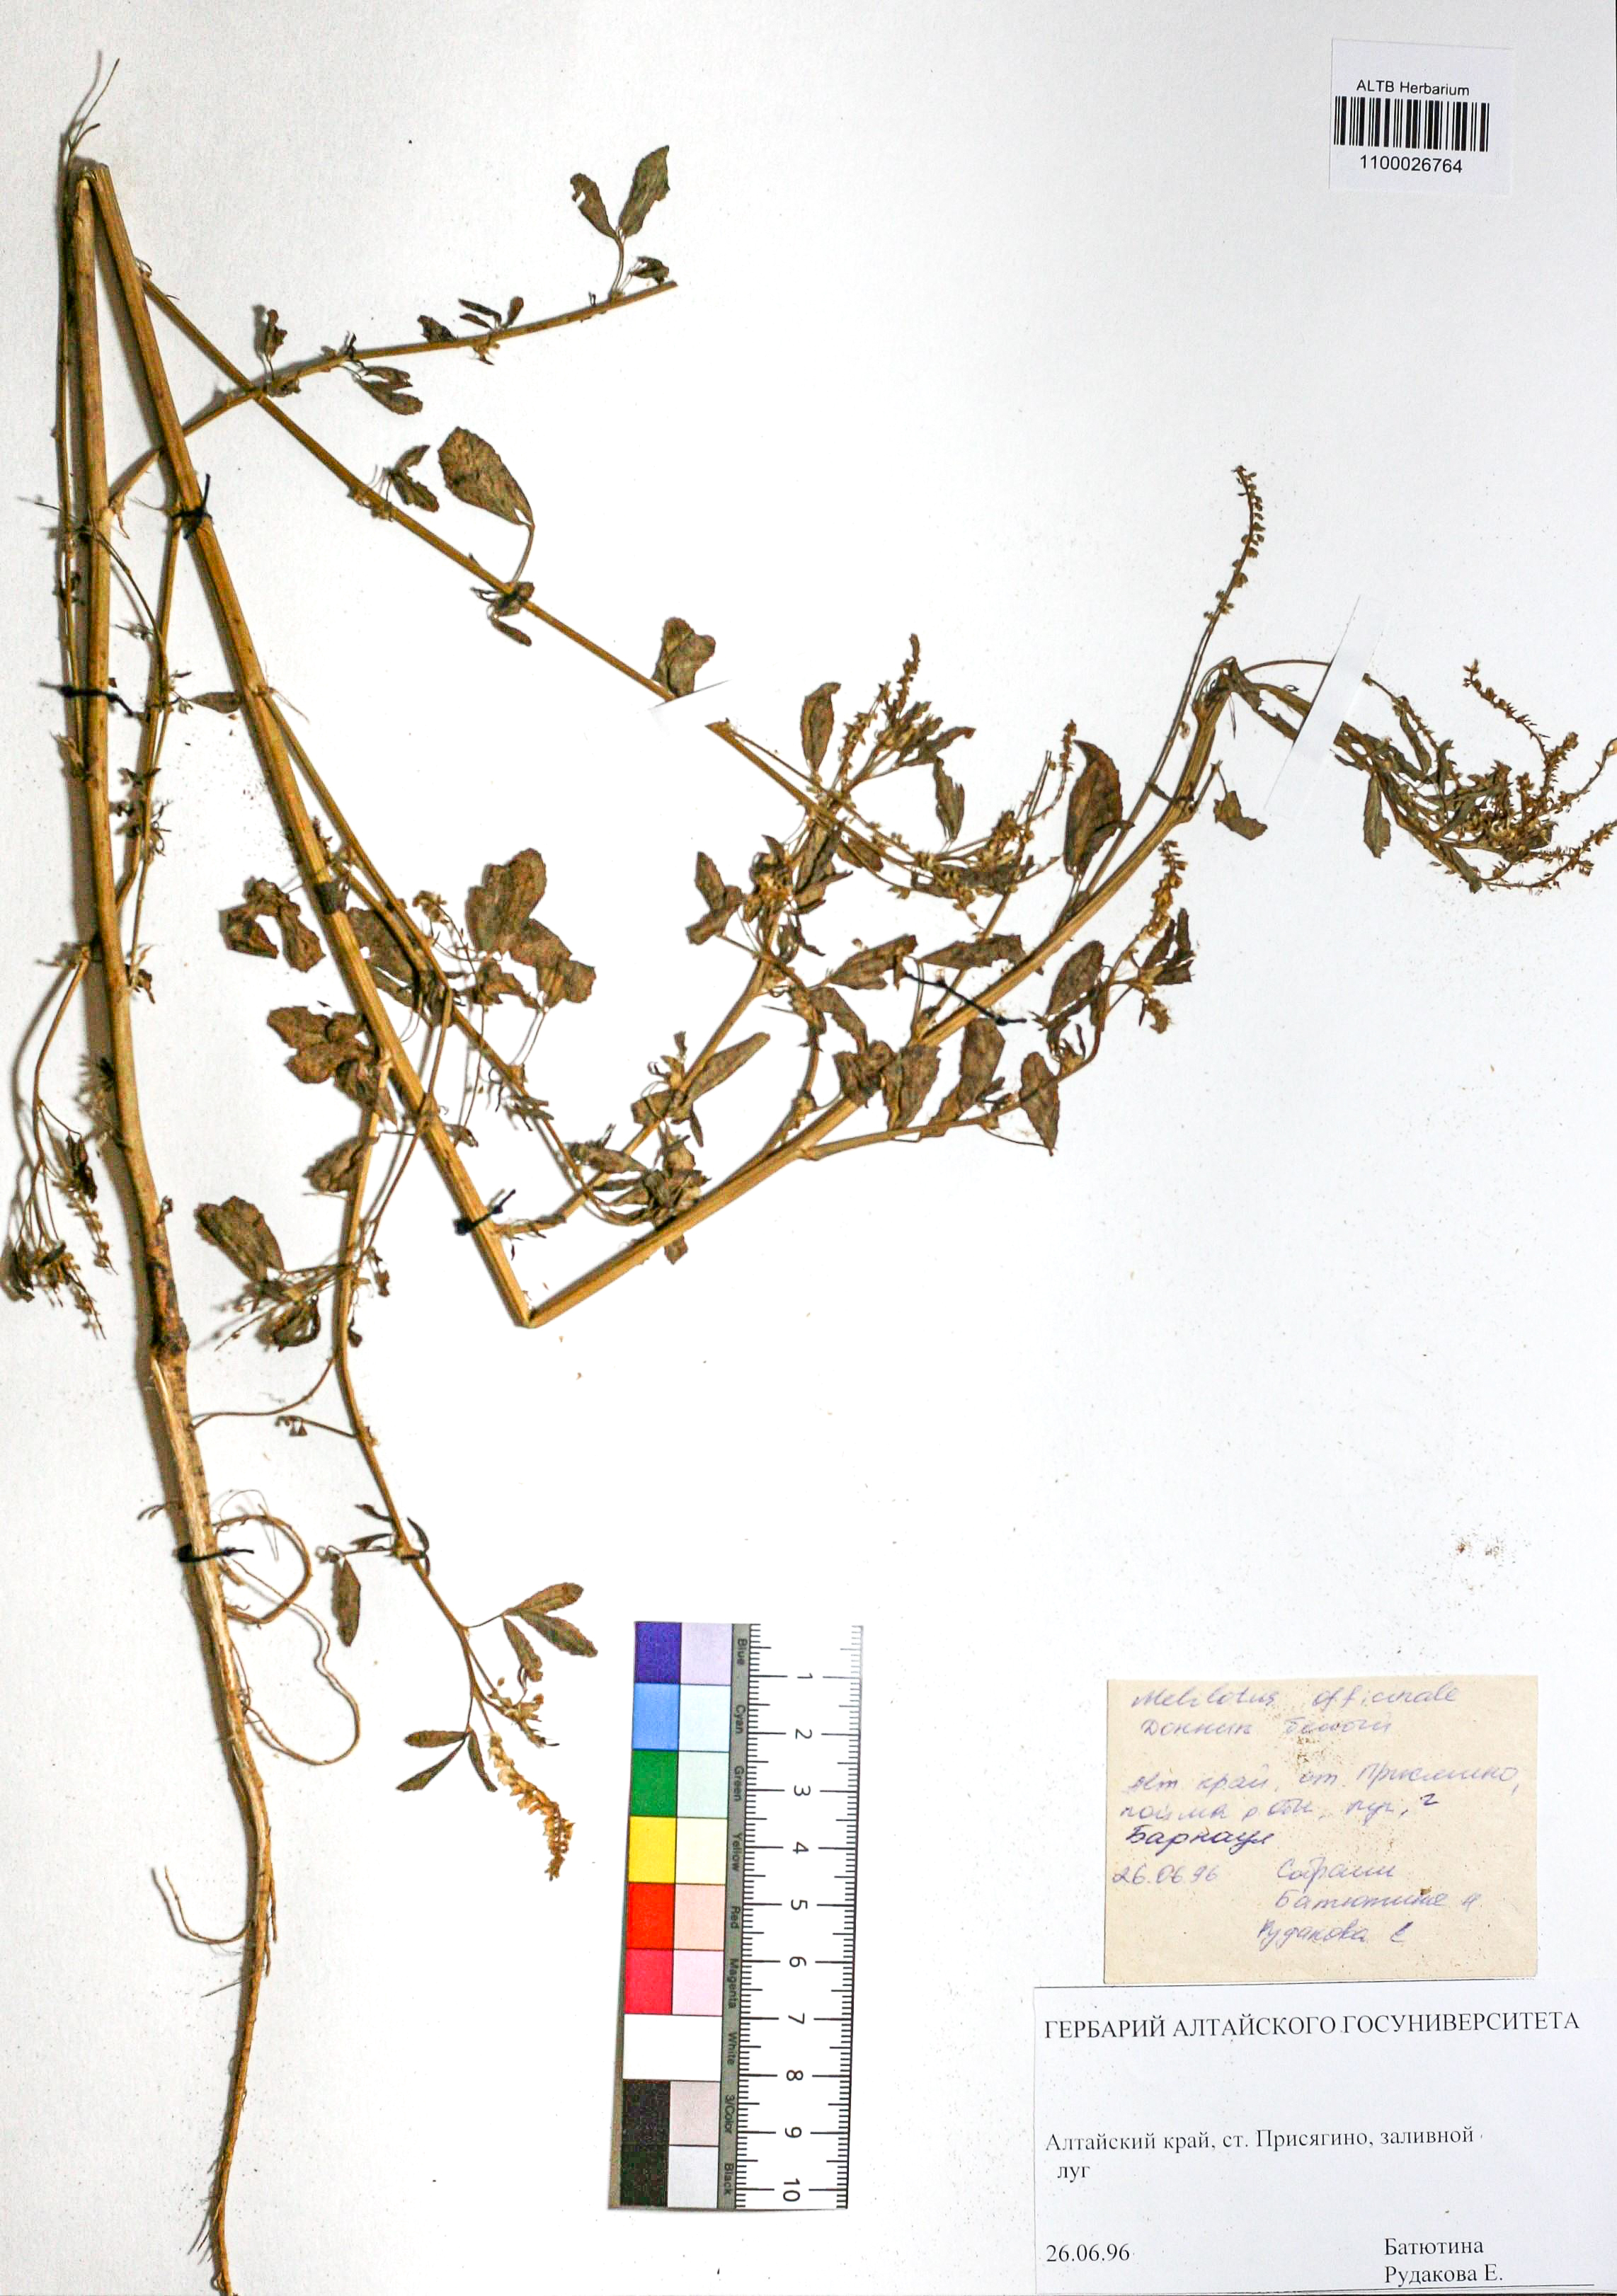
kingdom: Plantae
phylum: Tracheophyta
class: Magnoliopsida
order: Fabales
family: Fabaceae
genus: Melilotus
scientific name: Melilotus albus
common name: White melilot
